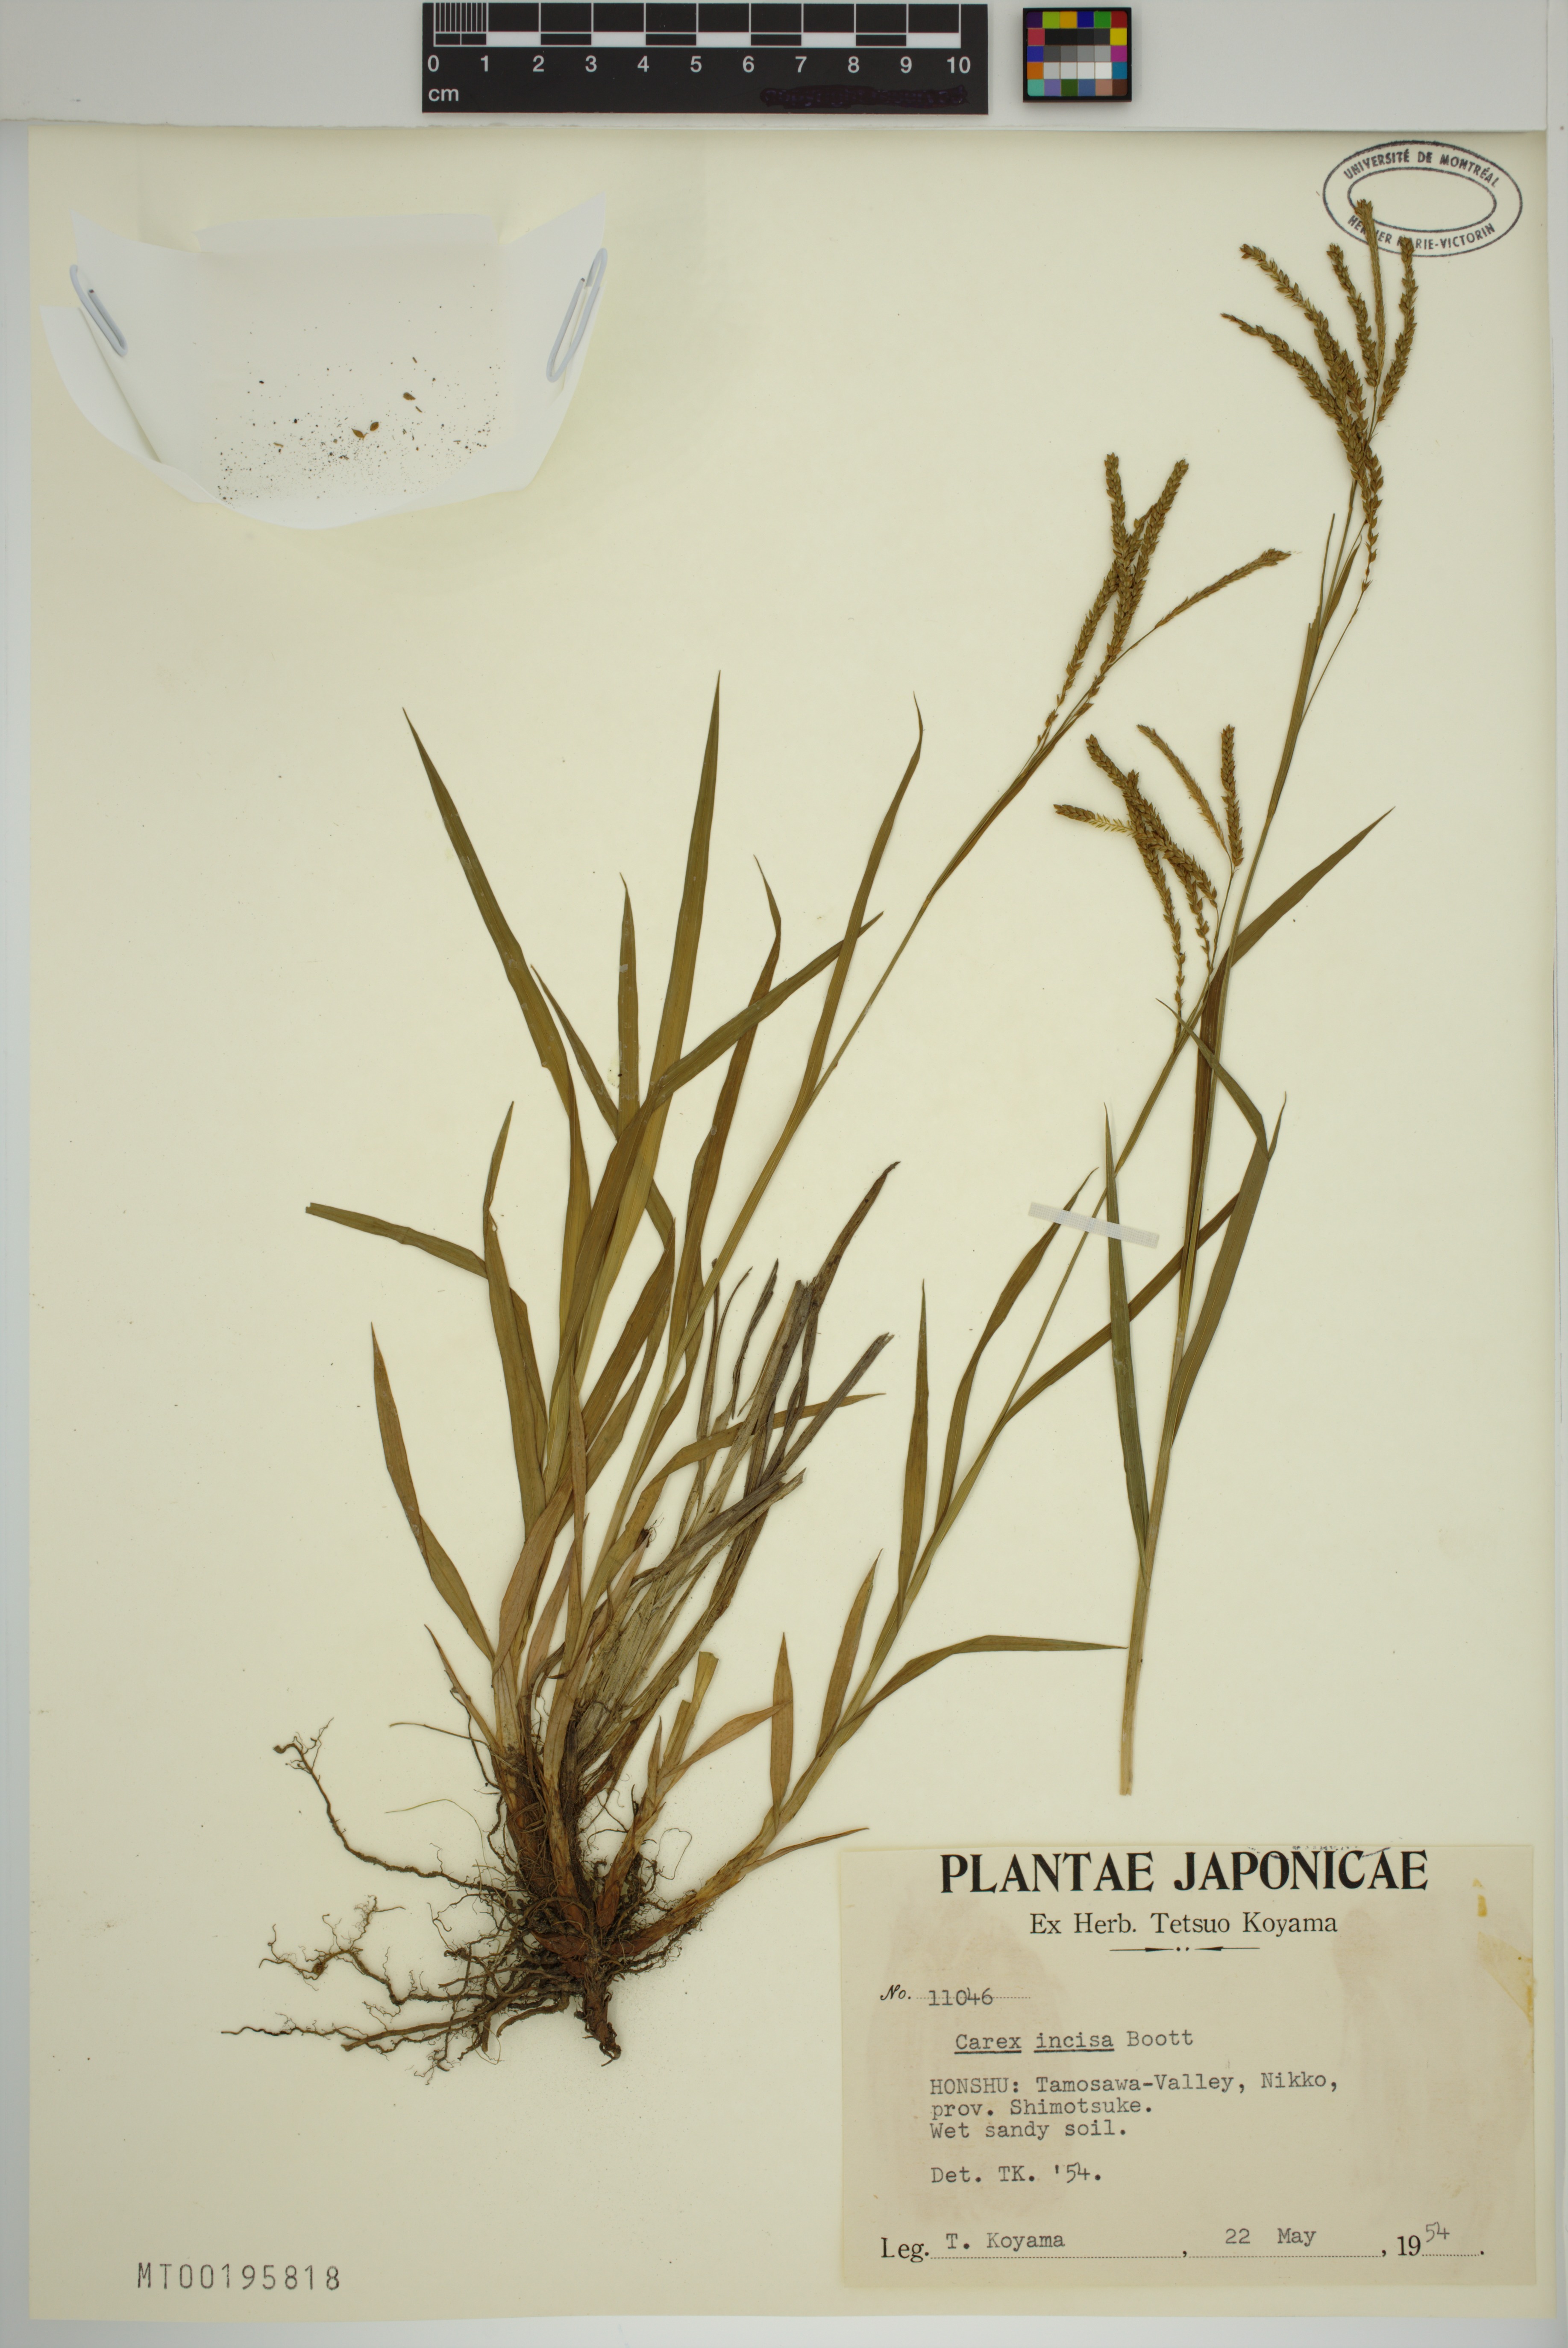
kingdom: Plantae
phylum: Tracheophyta
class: Liliopsida
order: Poales
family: Cyperaceae
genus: Carex
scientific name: Carex incisa
